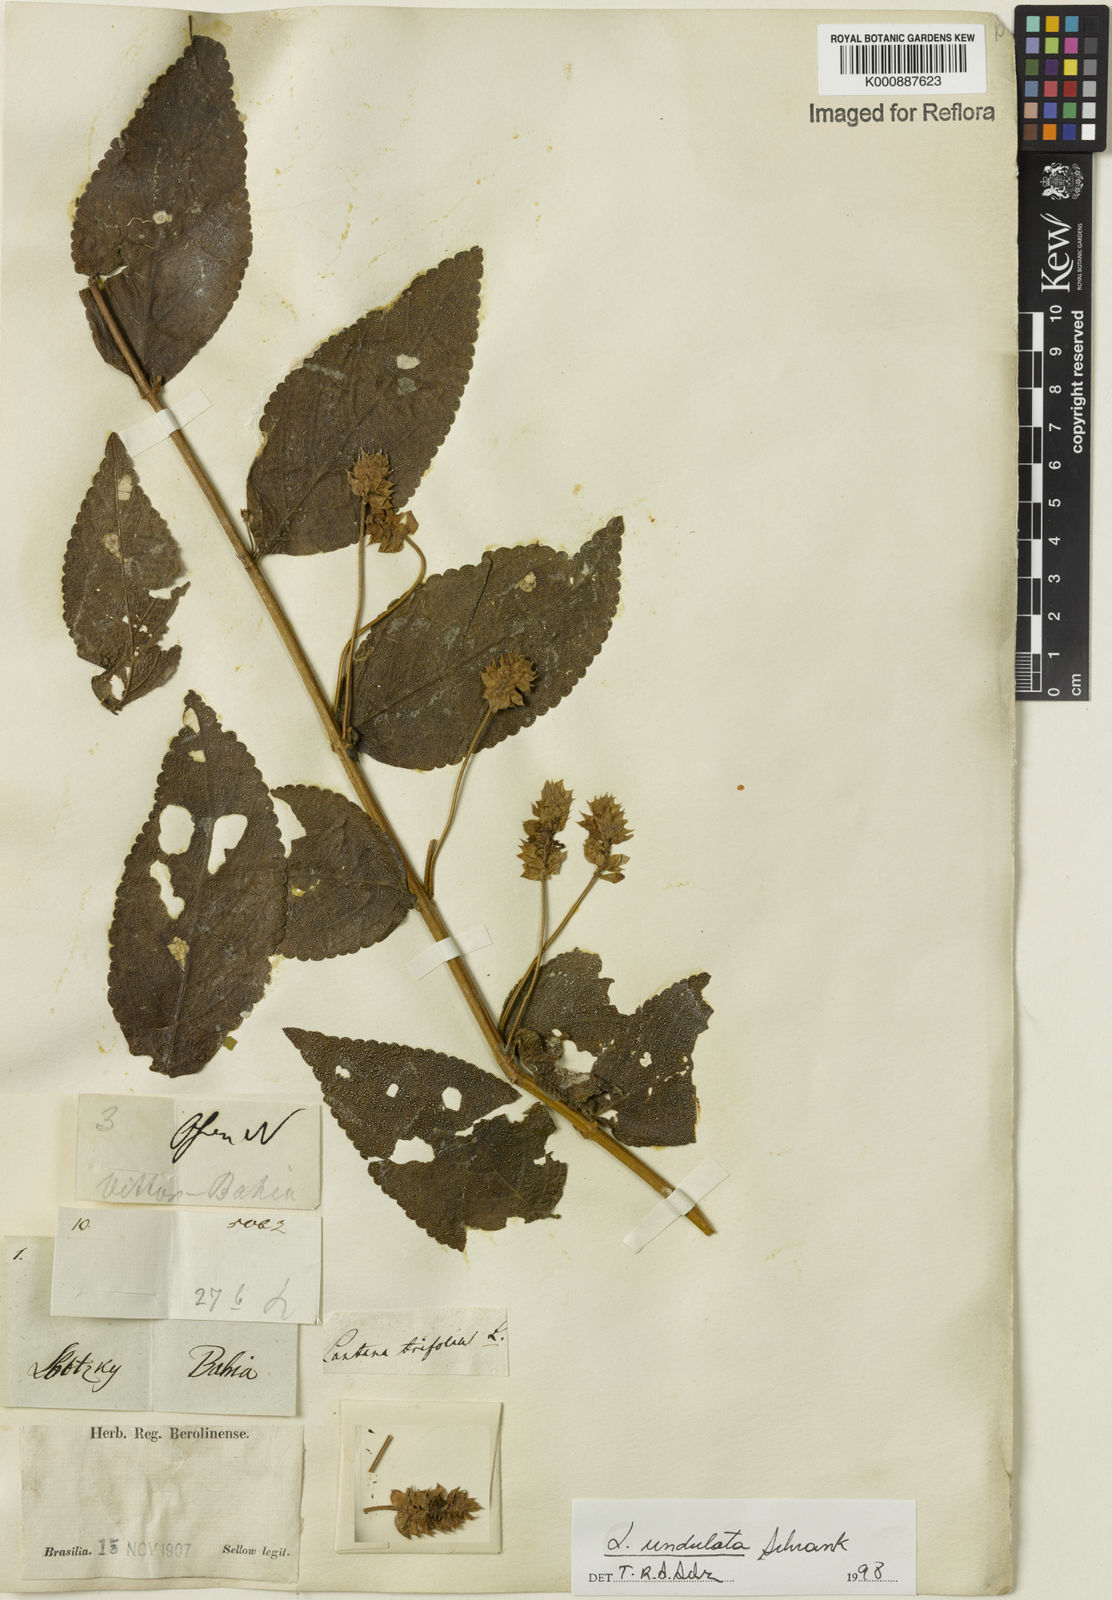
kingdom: Plantae
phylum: Tracheophyta
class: Magnoliopsida
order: Lamiales
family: Verbenaceae
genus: Lantana
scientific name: Lantana undulata
